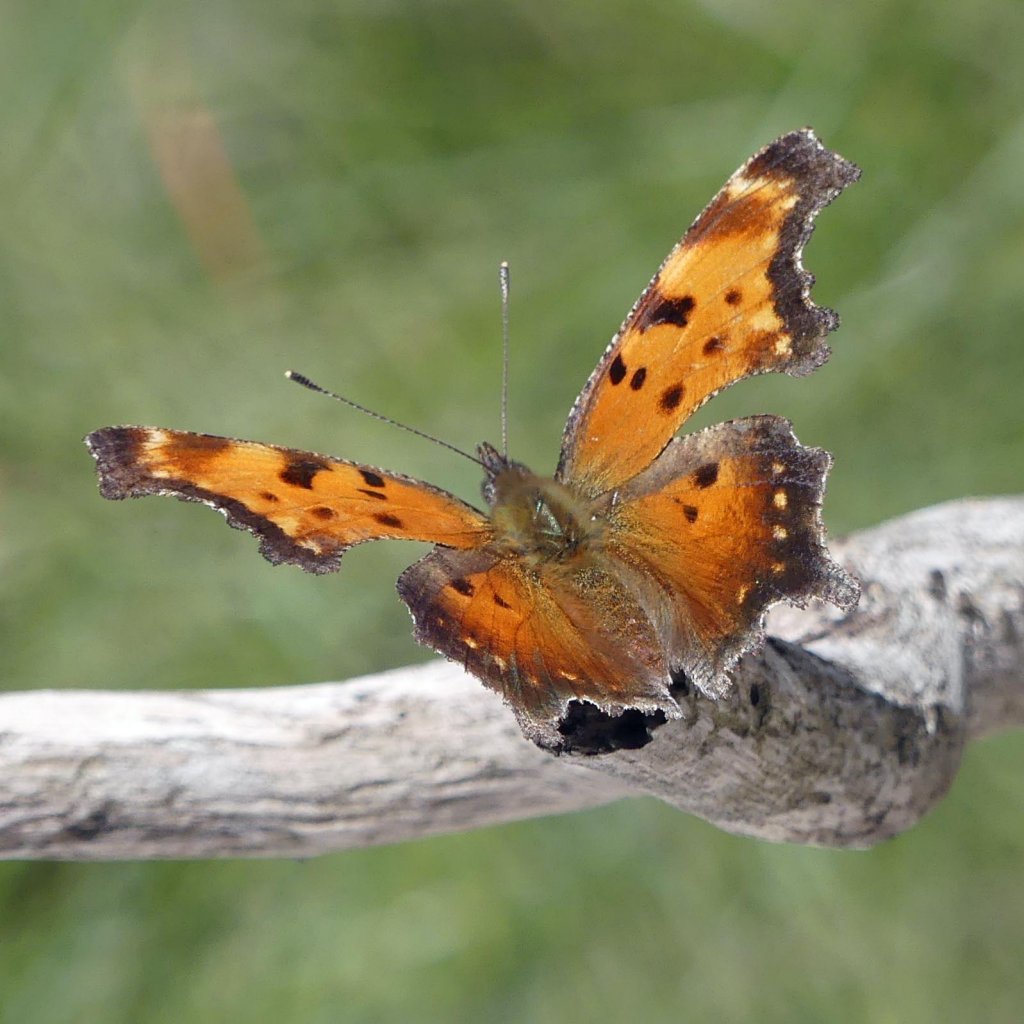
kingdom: Animalia
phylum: Arthropoda
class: Insecta
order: Lepidoptera
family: Nymphalidae
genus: Polygonia
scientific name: Polygonia progne
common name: Gray Comma
